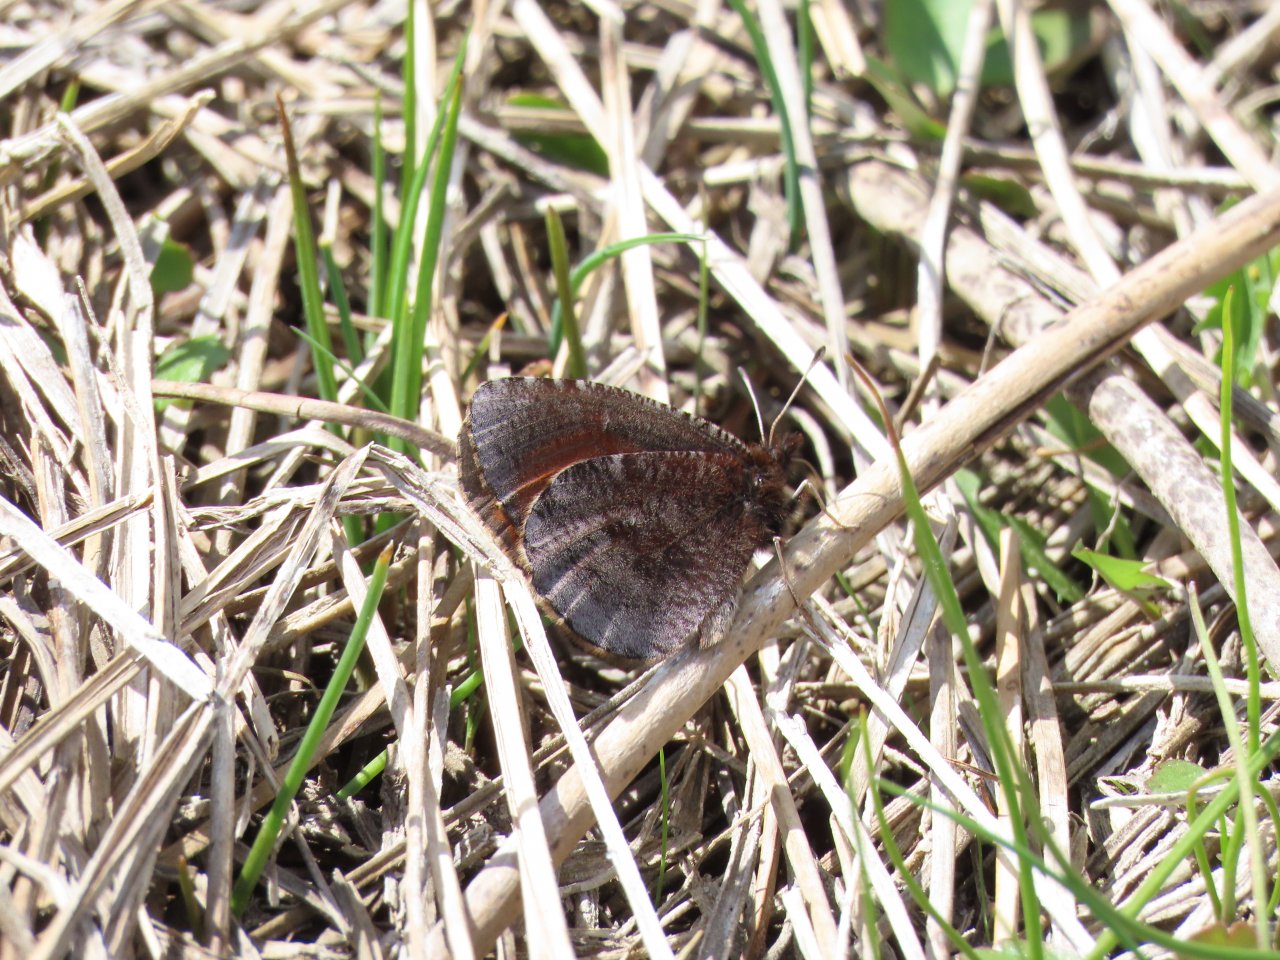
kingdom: Animalia
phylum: Arthropoda
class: Insecta
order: Lepidoptera
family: Nymphalidae
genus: Erebia
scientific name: Erebia discoidalis
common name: Red-disked Alpine
